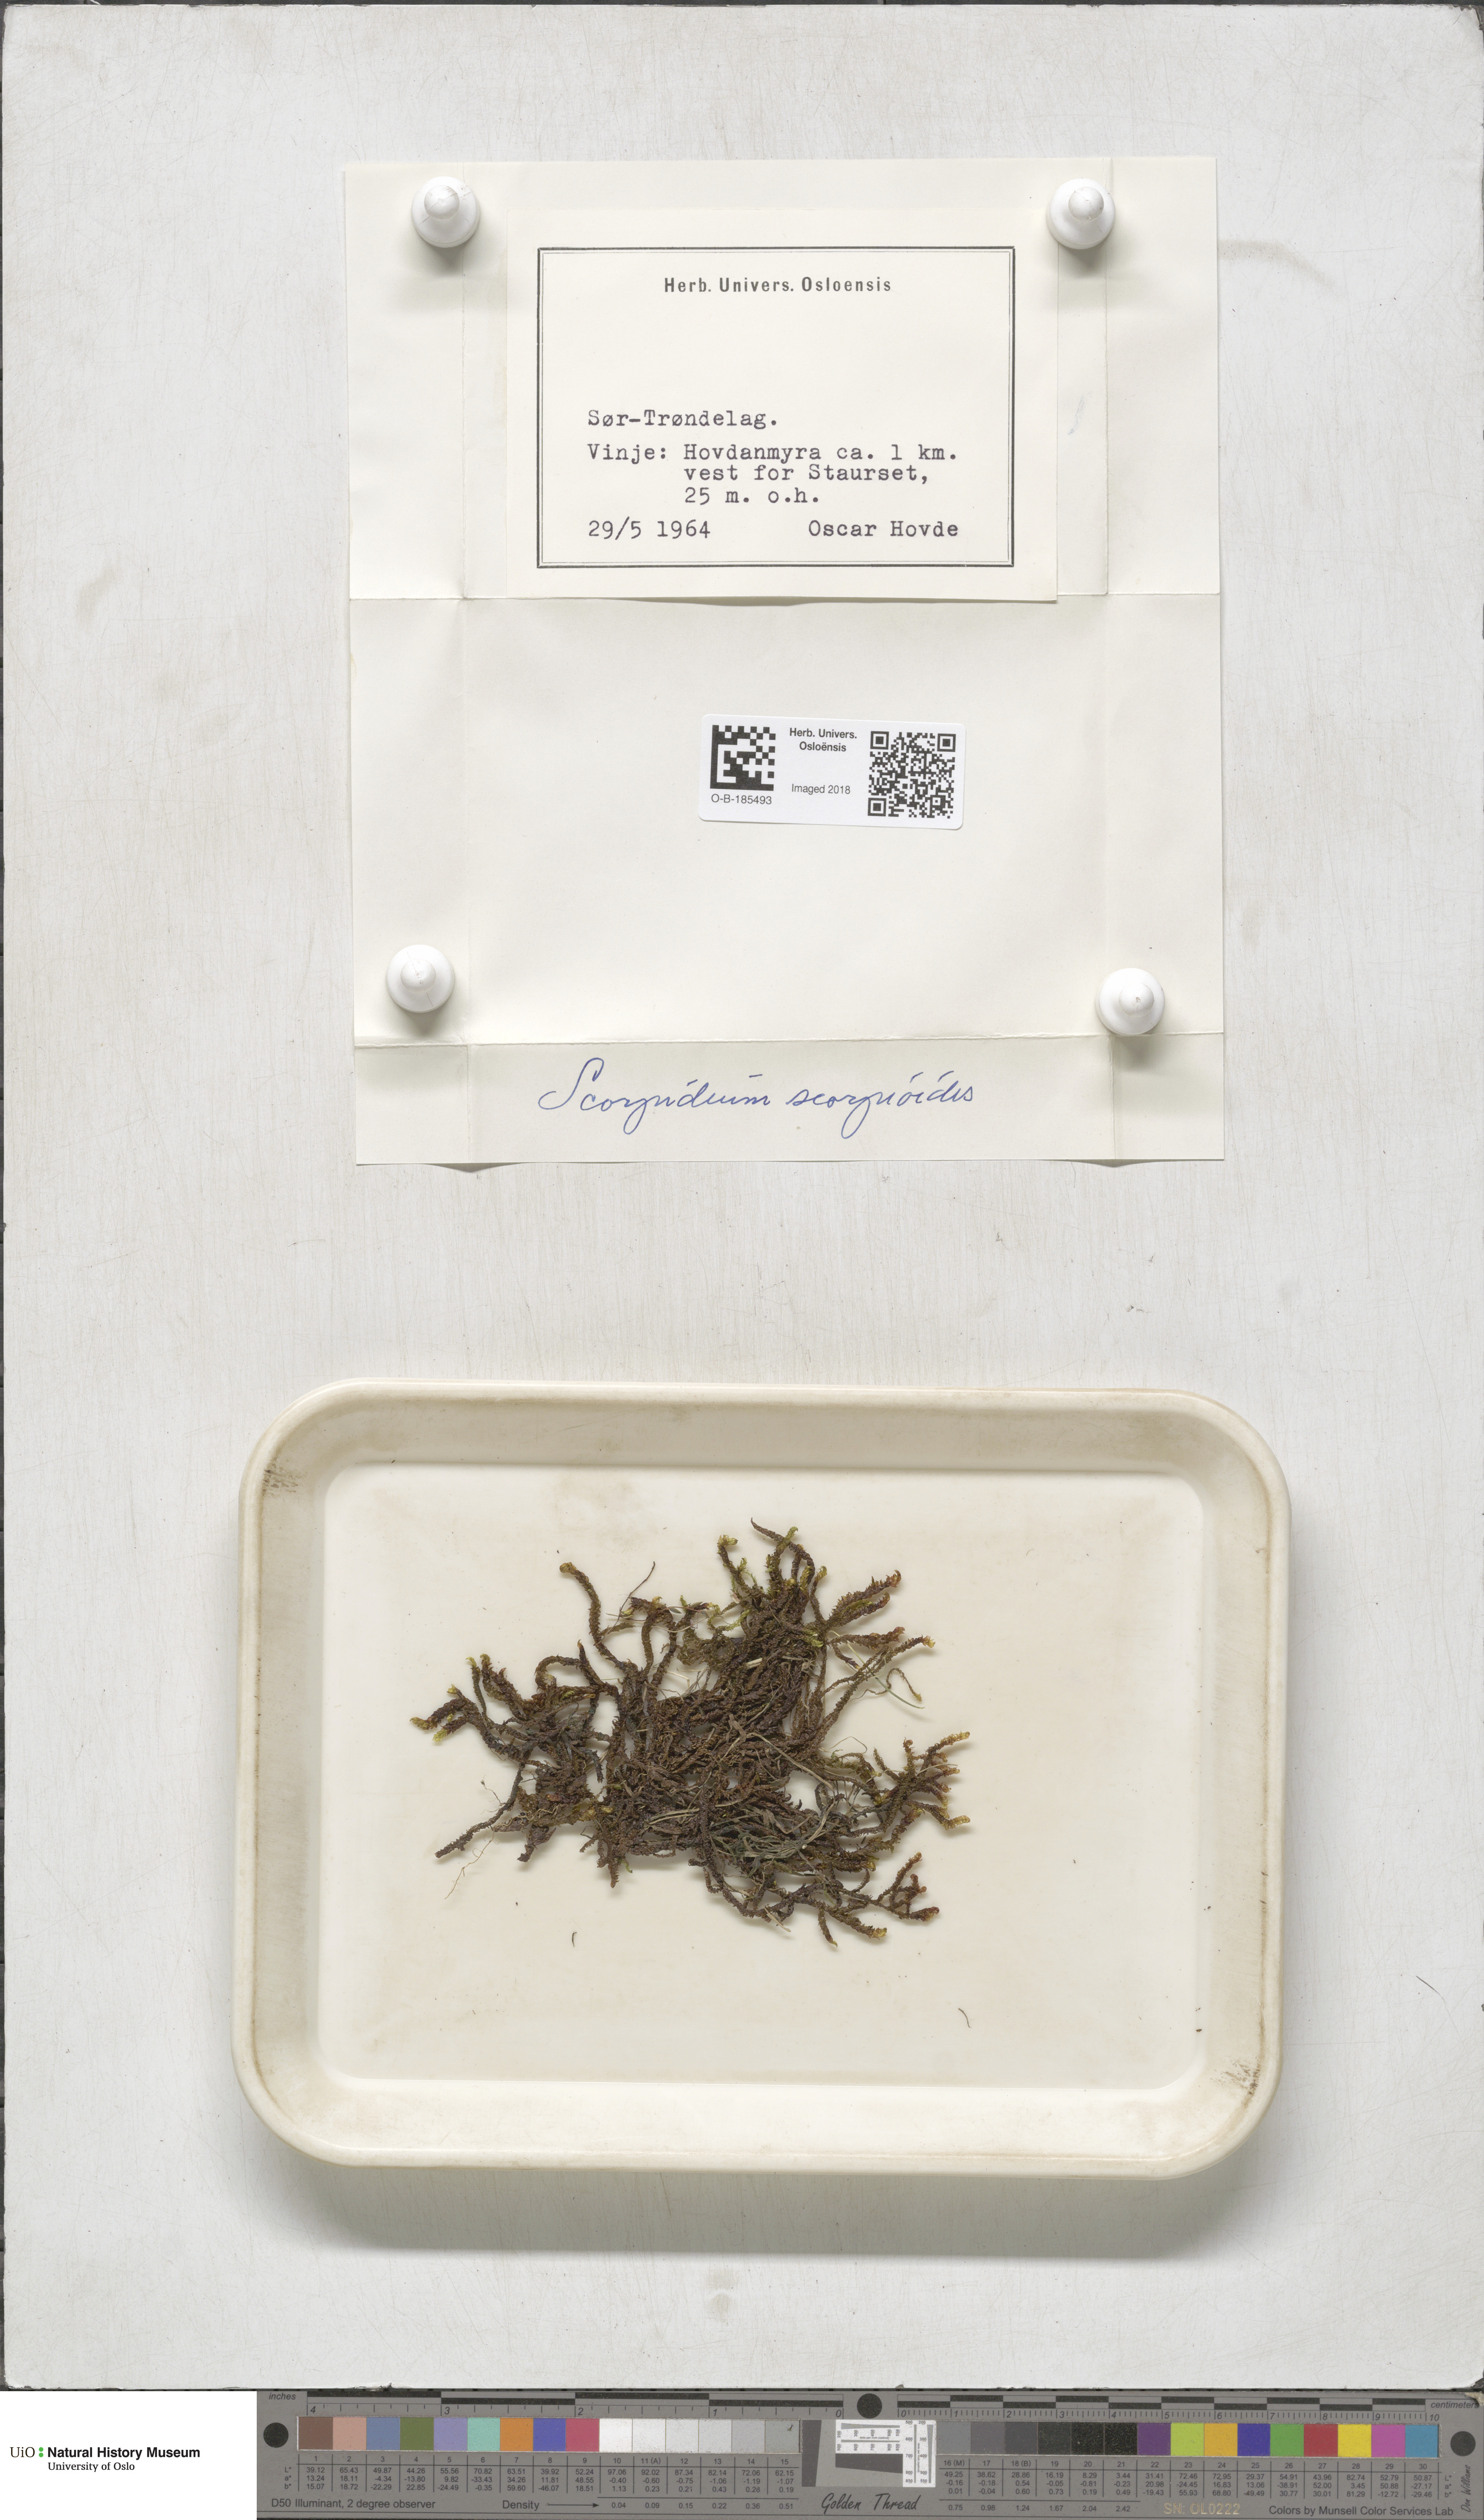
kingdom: Plantae
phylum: Bryophyta
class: Bryopsida
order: Hypnales
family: Scorpidiaceae
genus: Scorpidium
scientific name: Scorpidium scorpioides
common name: Hooked scorpion moss
